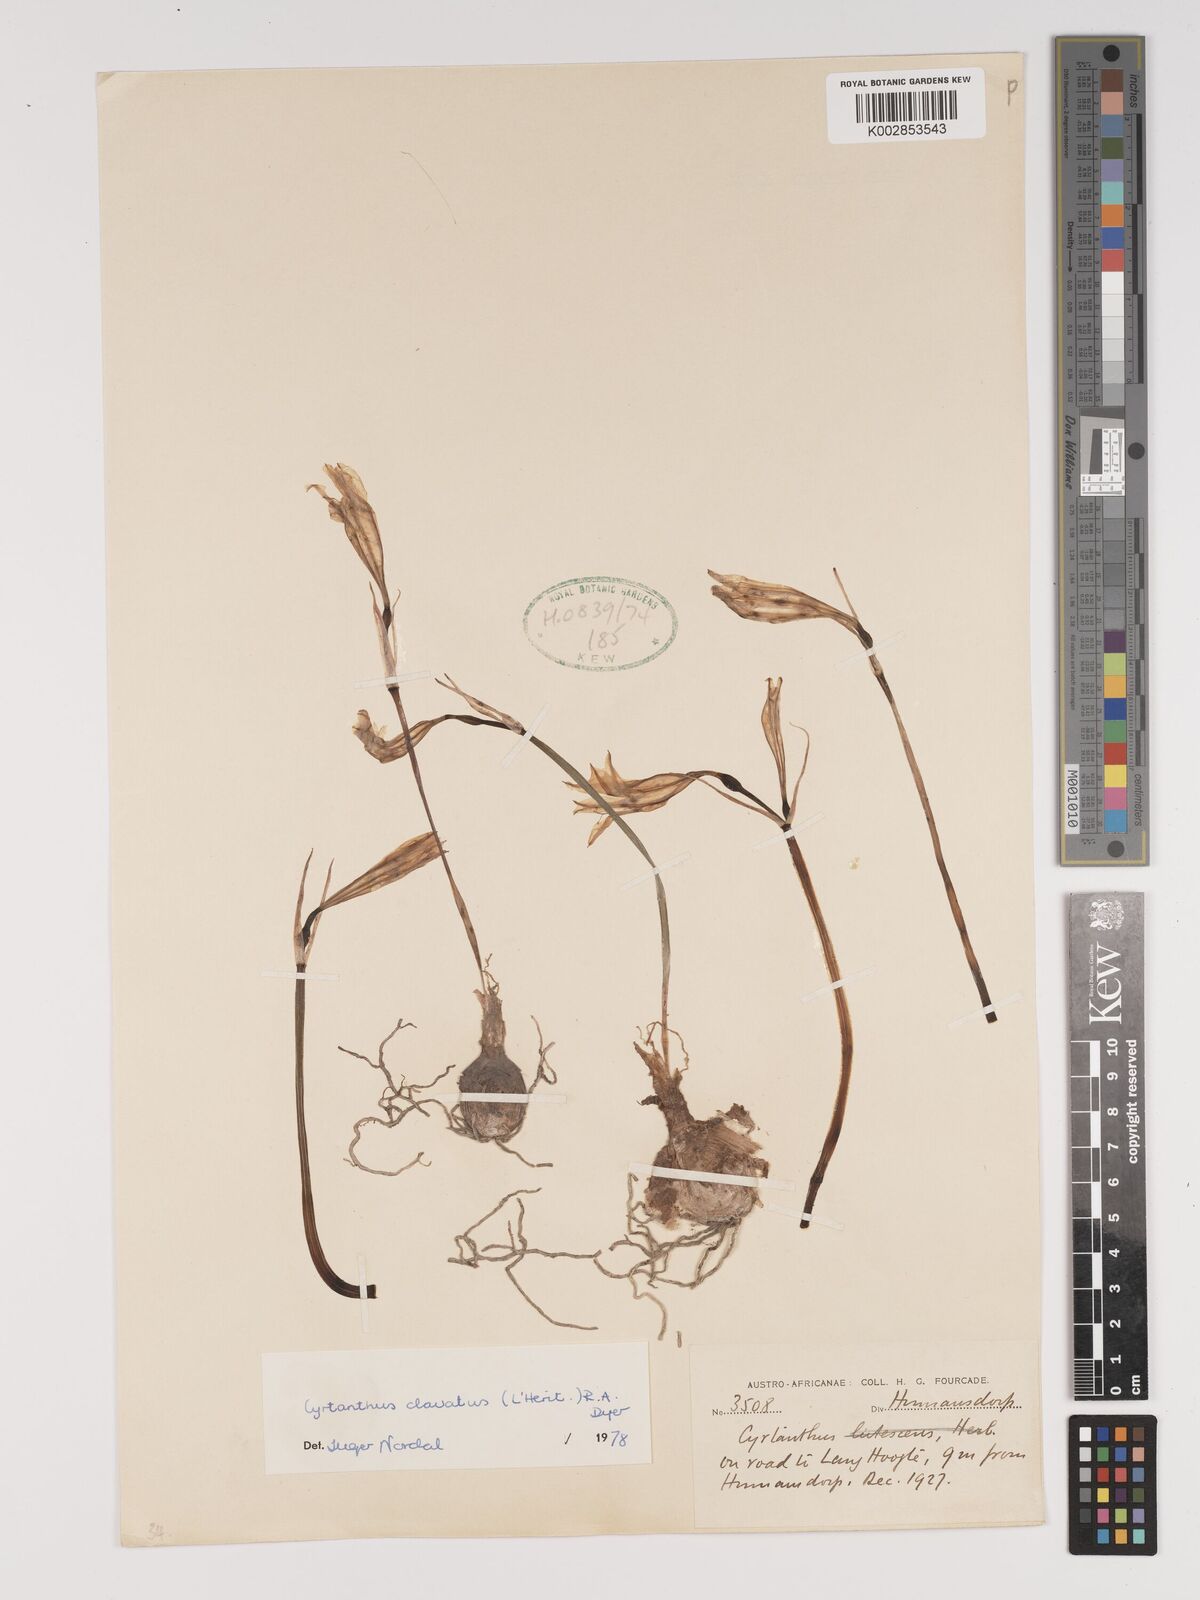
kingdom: Plantae
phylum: Tracheophyta
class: Liliopsida
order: Asparagales
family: Amaryllidaceae
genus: Cyrtanthus
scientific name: Cyrtanthus clavatus
